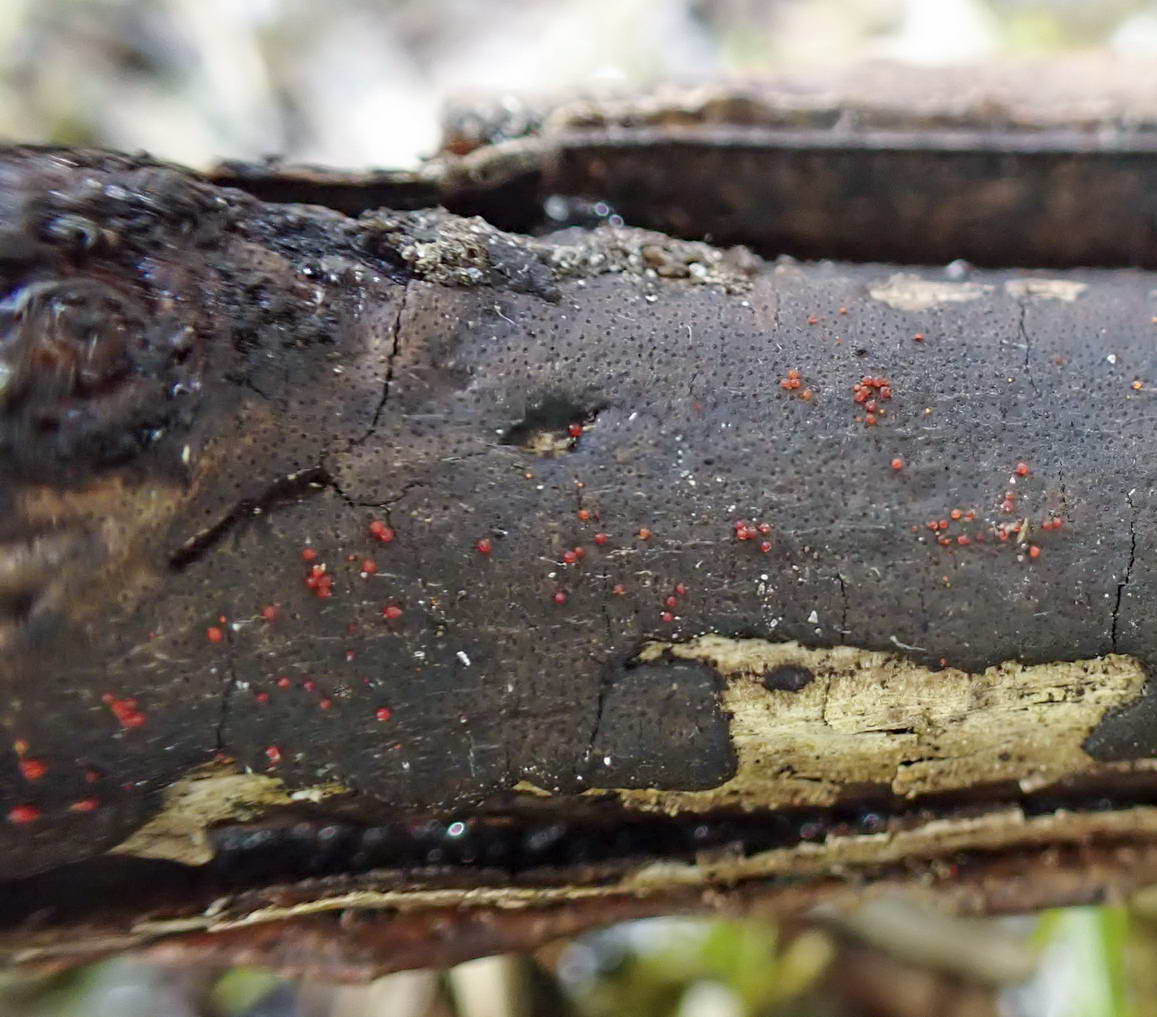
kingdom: Fungi
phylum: Ascomycota
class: Sordariomycetes
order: Hypocreales
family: Nectriaceae
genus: Dialonectria
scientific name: Dialonectria episphaeria
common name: kulskorpe-cinnobersvamp
